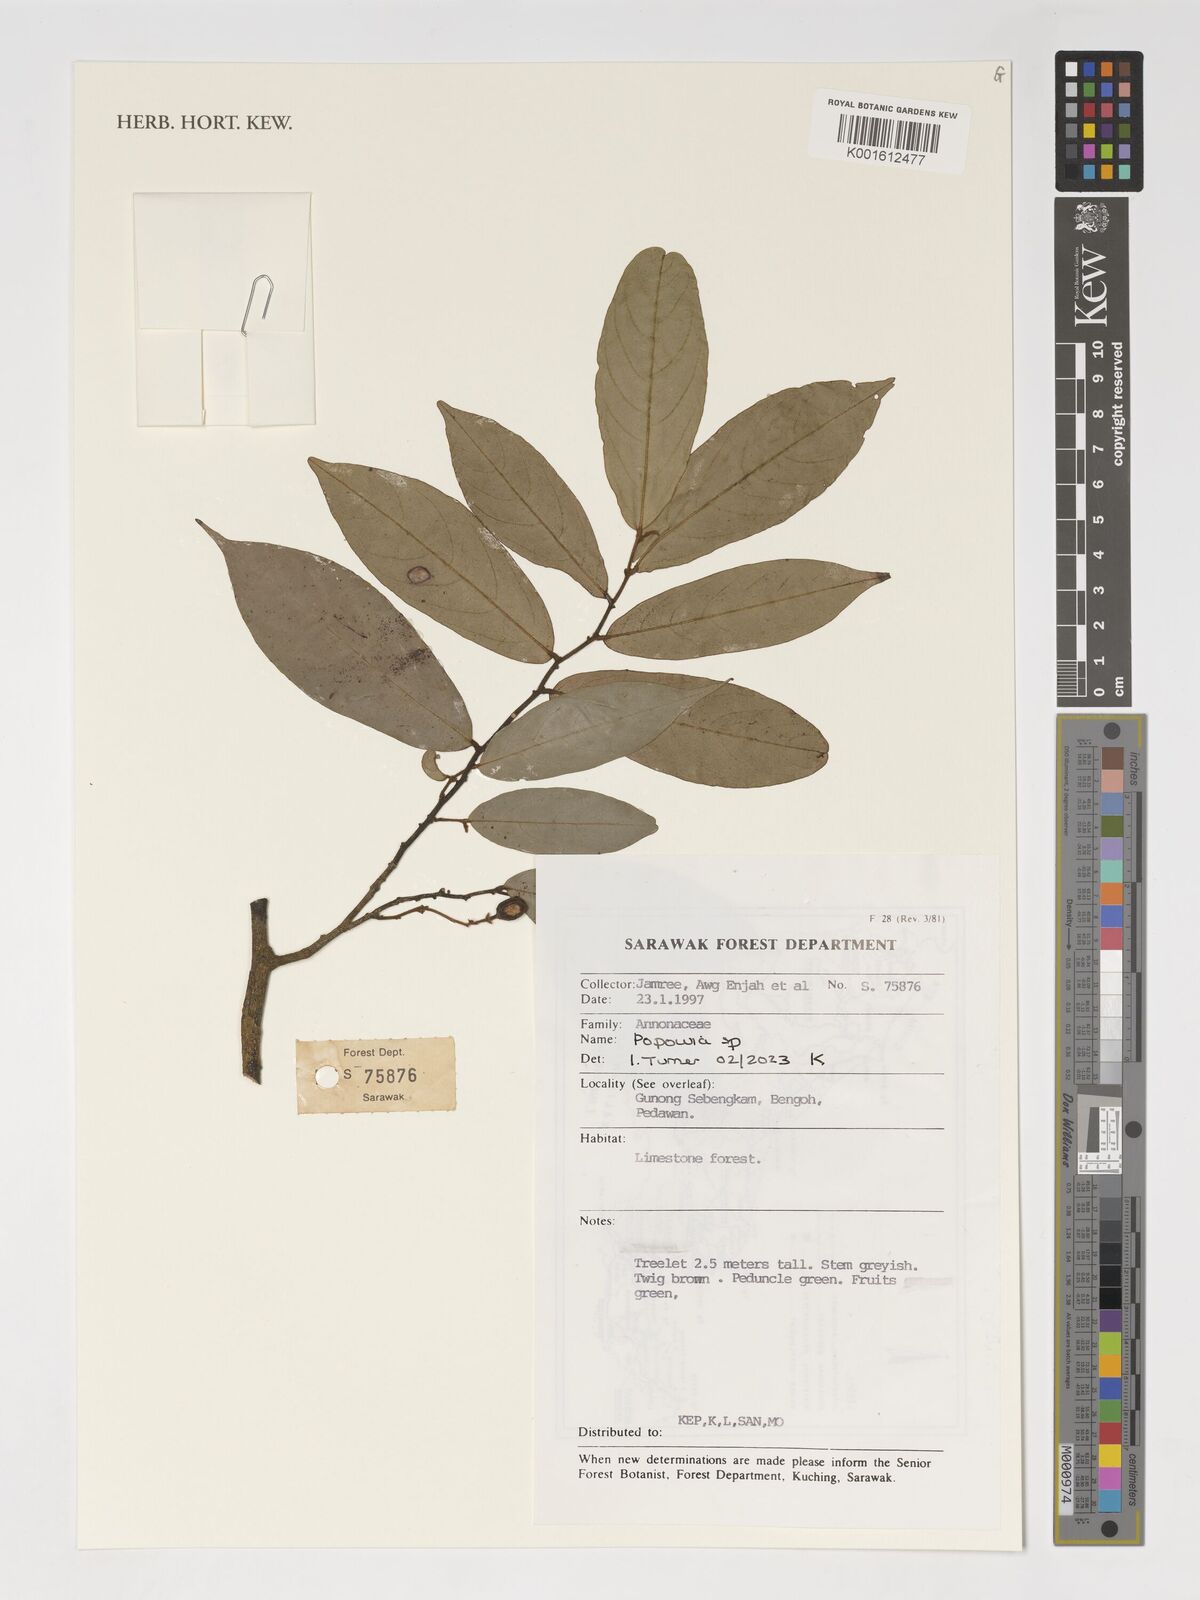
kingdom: Plantae
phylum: Tracheophyta
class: Magnoliopsida
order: Magnoliales
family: Annonaceae
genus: Popowia
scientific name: Popowia
